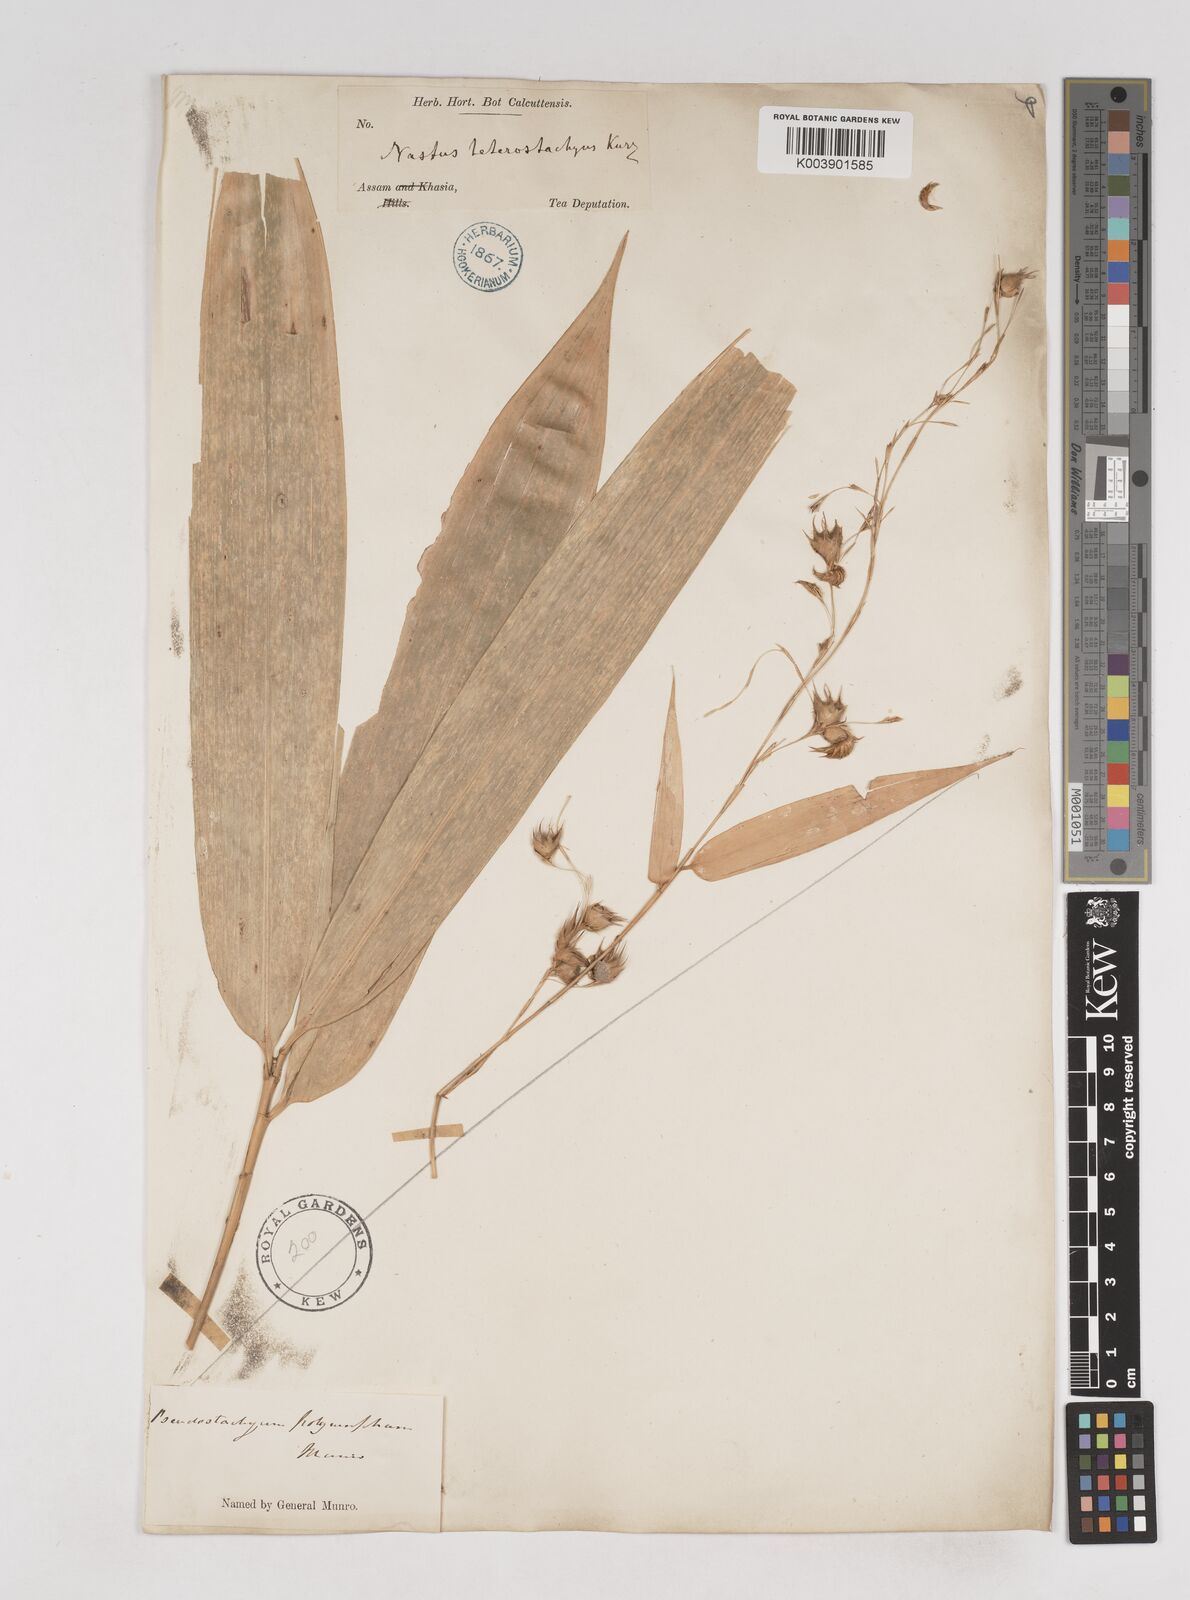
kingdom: Plantae
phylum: Tracheophyta
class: Liliopsida
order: Poales
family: Poaceae
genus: Pseudostachyum
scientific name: Pseudostachyum polymorphum
